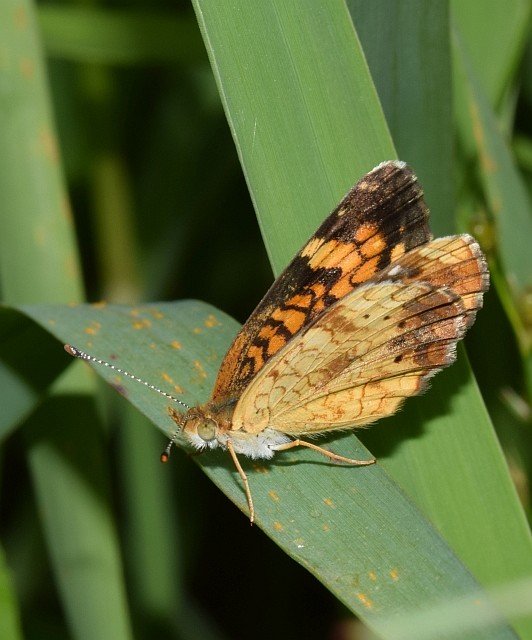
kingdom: Animalia
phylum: Arthropoda
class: Insecta
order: Lepidoptera
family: Nymphalidae
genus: Phyciodes
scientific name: Phyciodes tharos
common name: Northern Crescent
